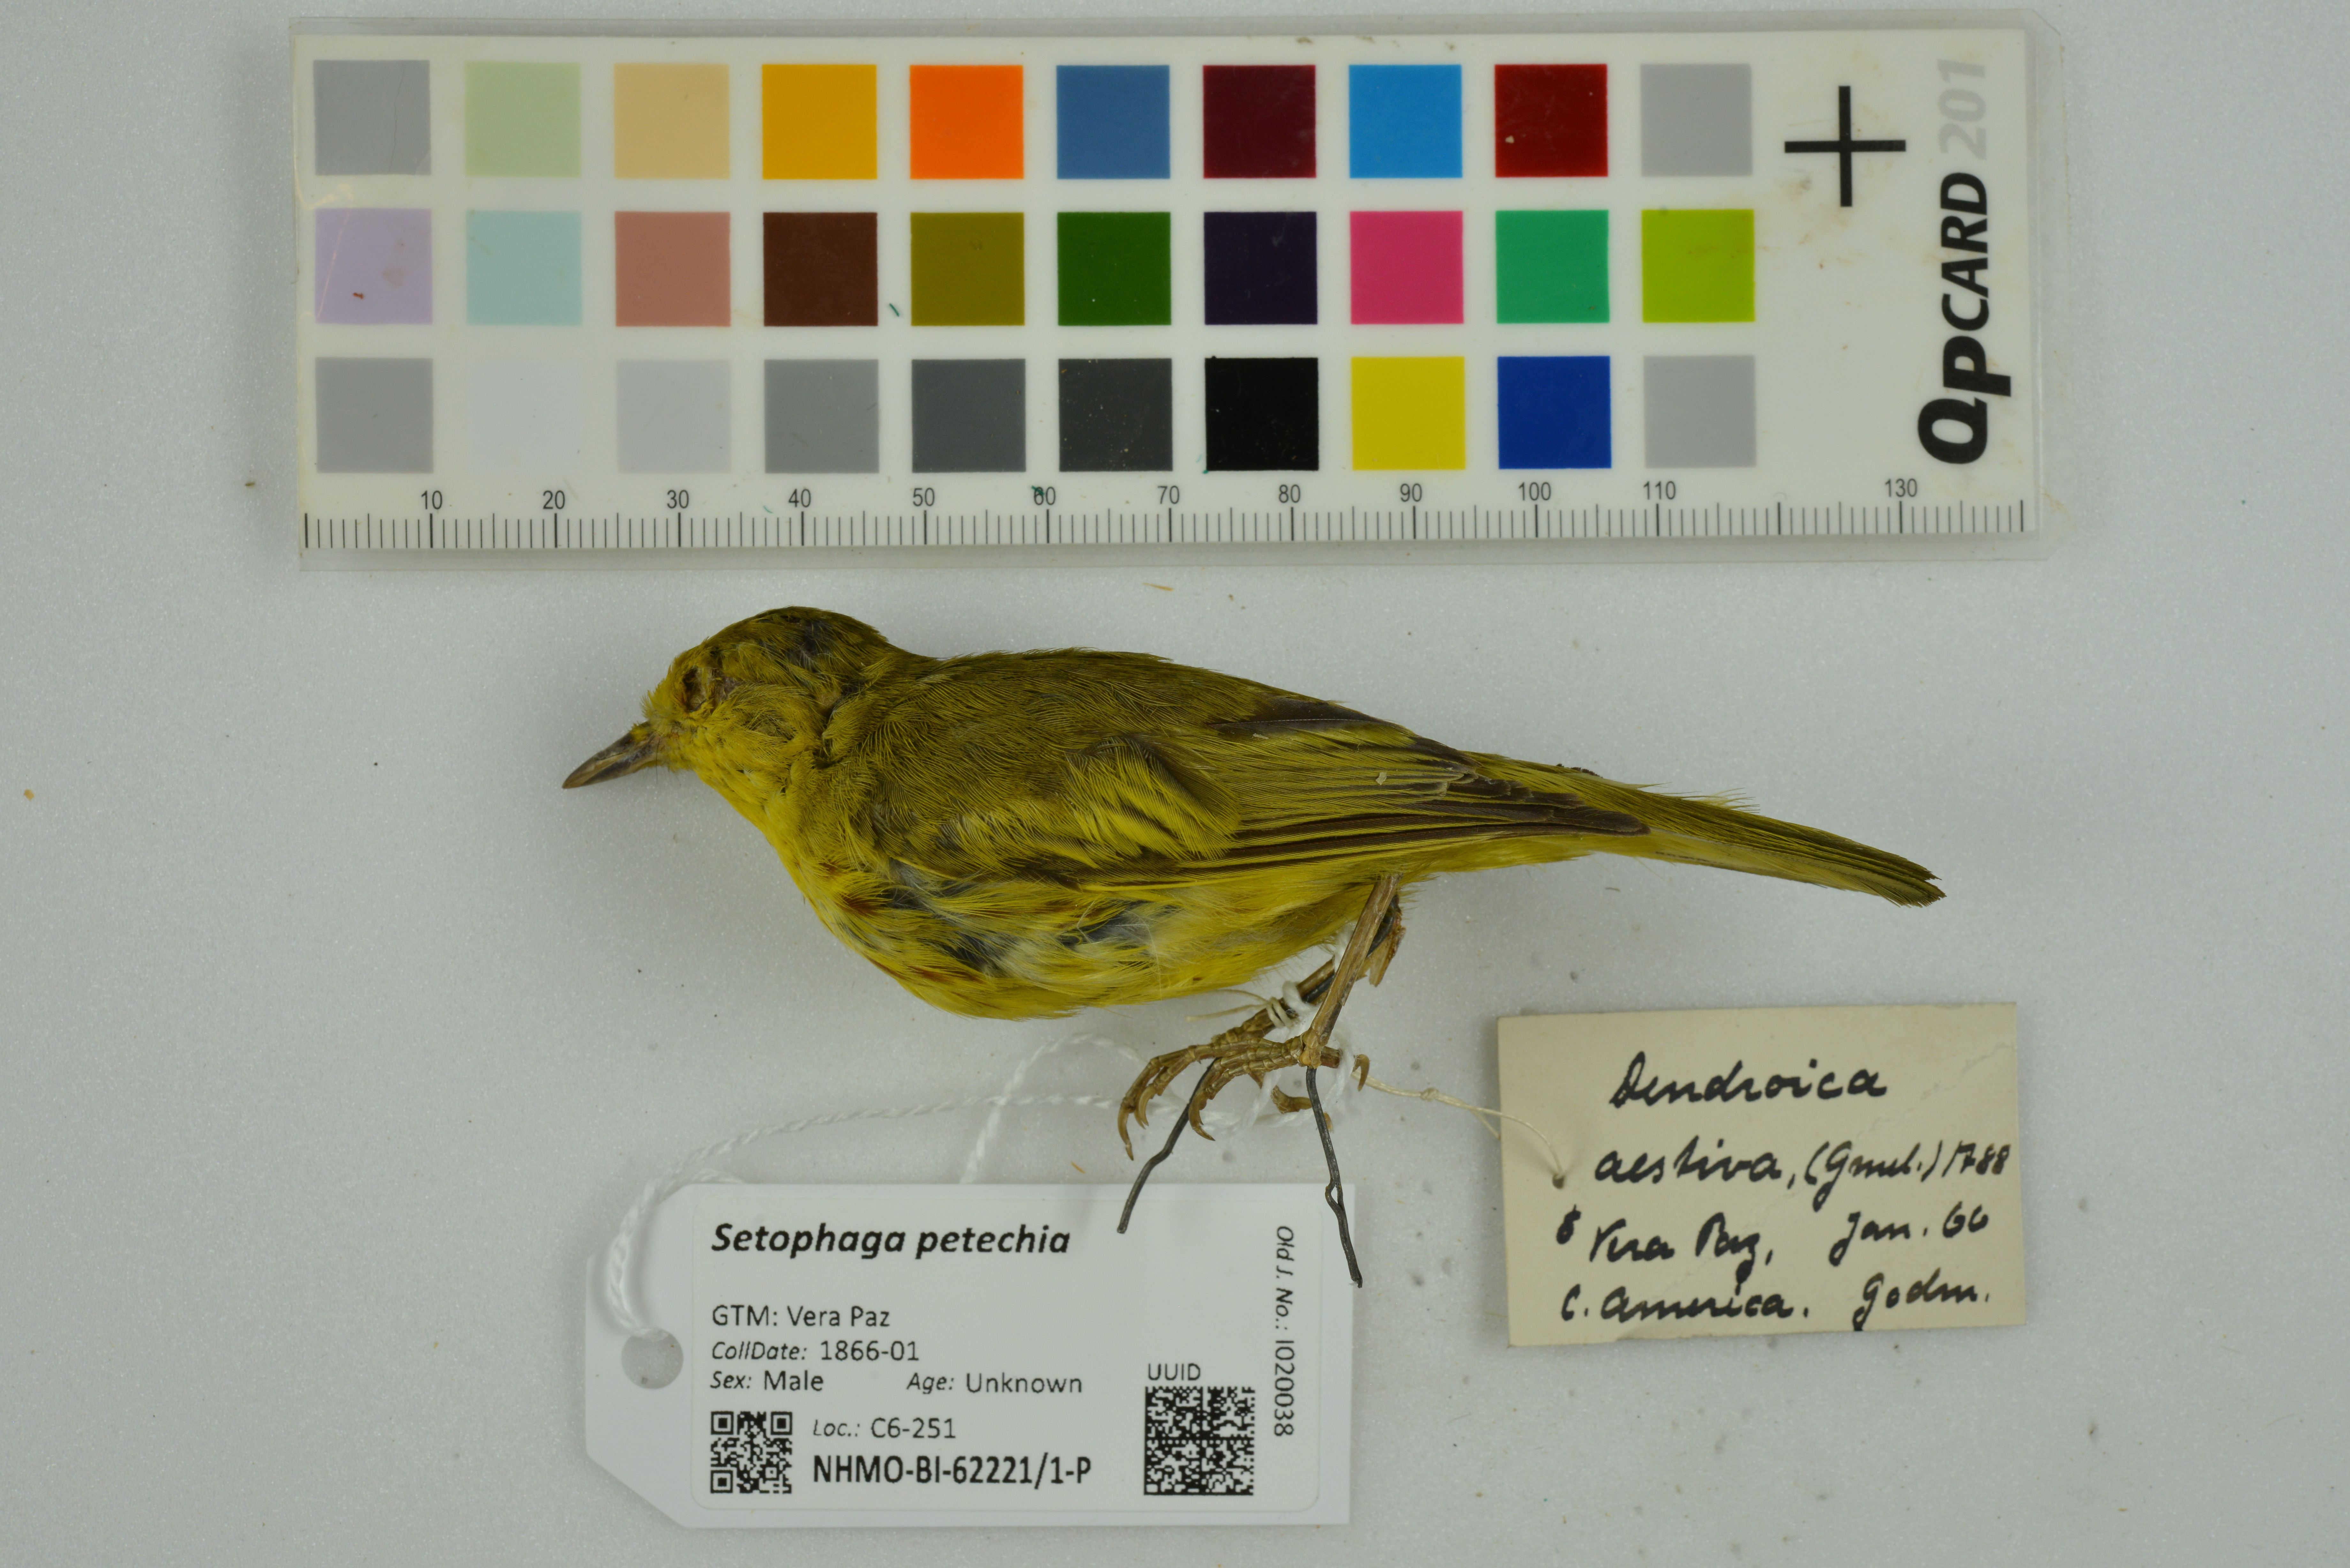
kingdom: Animalia
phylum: Chordata
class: Aves
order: Passeriformes
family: Parulidae
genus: Setophaga
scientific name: Setophaga petechia
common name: Yellow warbler
